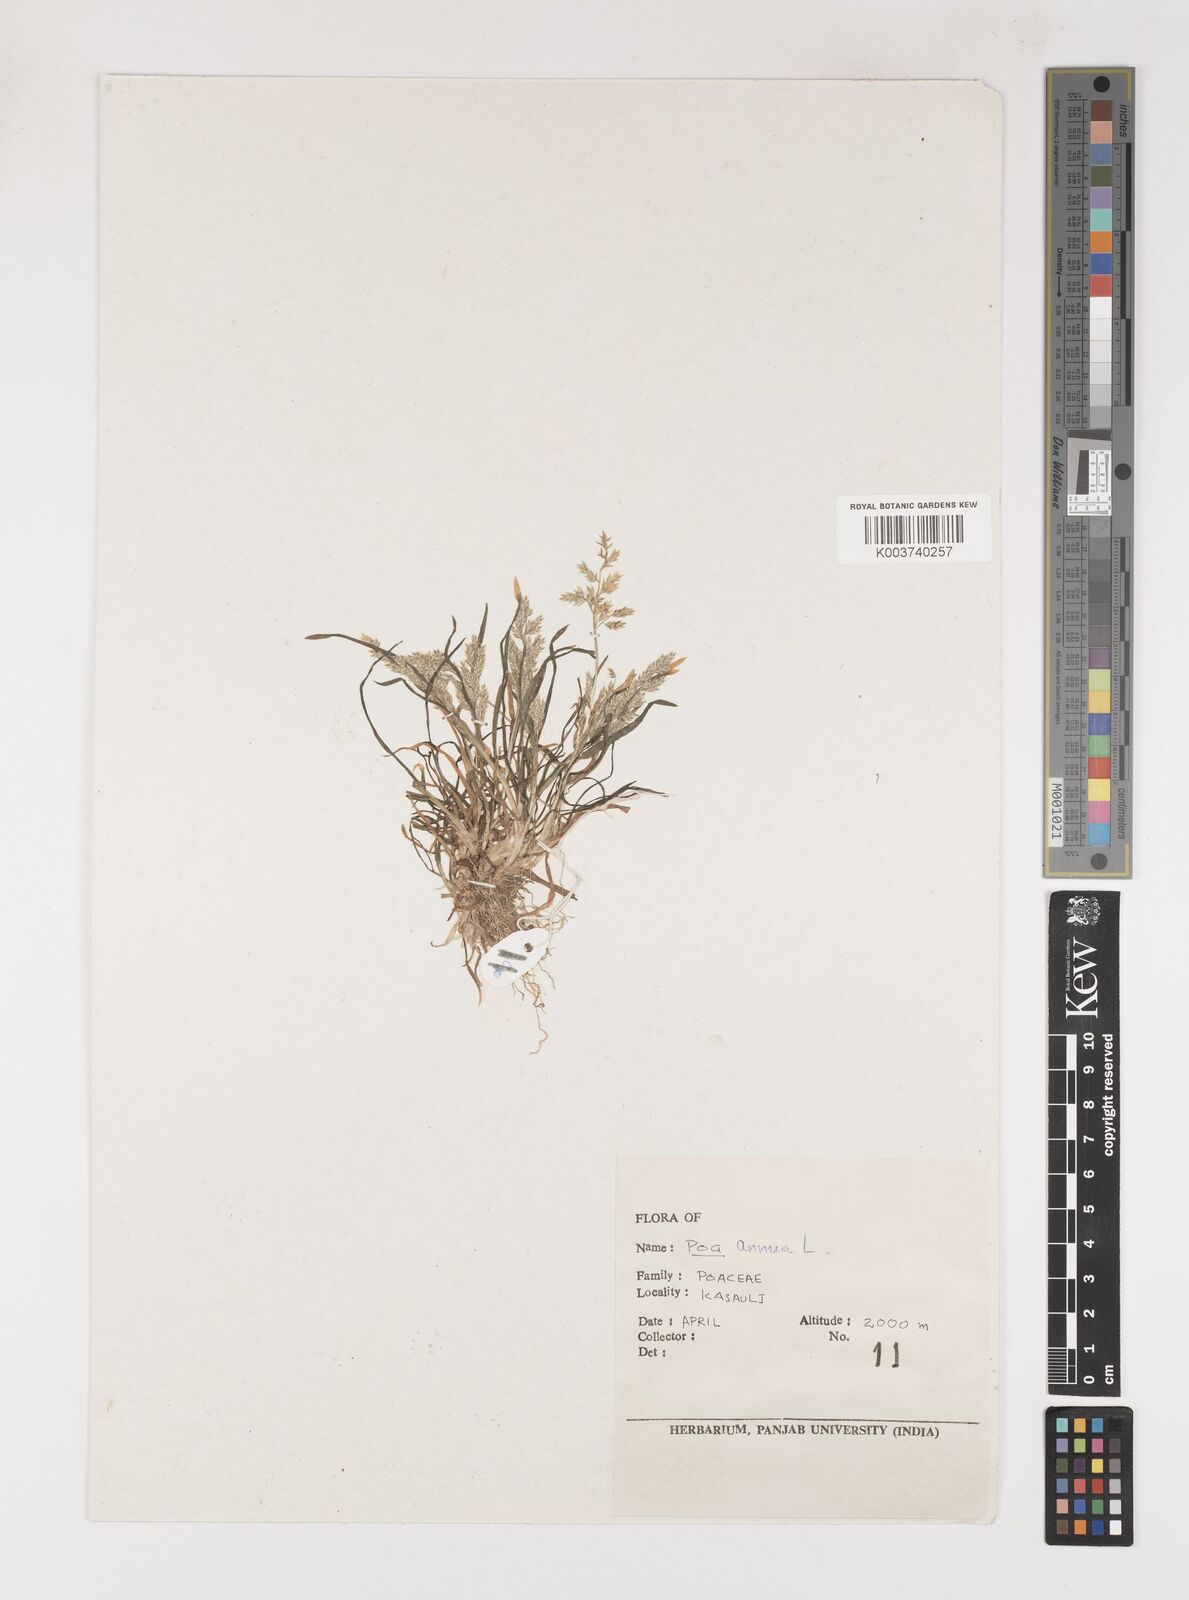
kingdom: Plantae
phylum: Tracheophyta
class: Liliopsida
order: Poales
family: Poaceae
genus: Poa
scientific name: Poa annua
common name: Annual bluegrass
